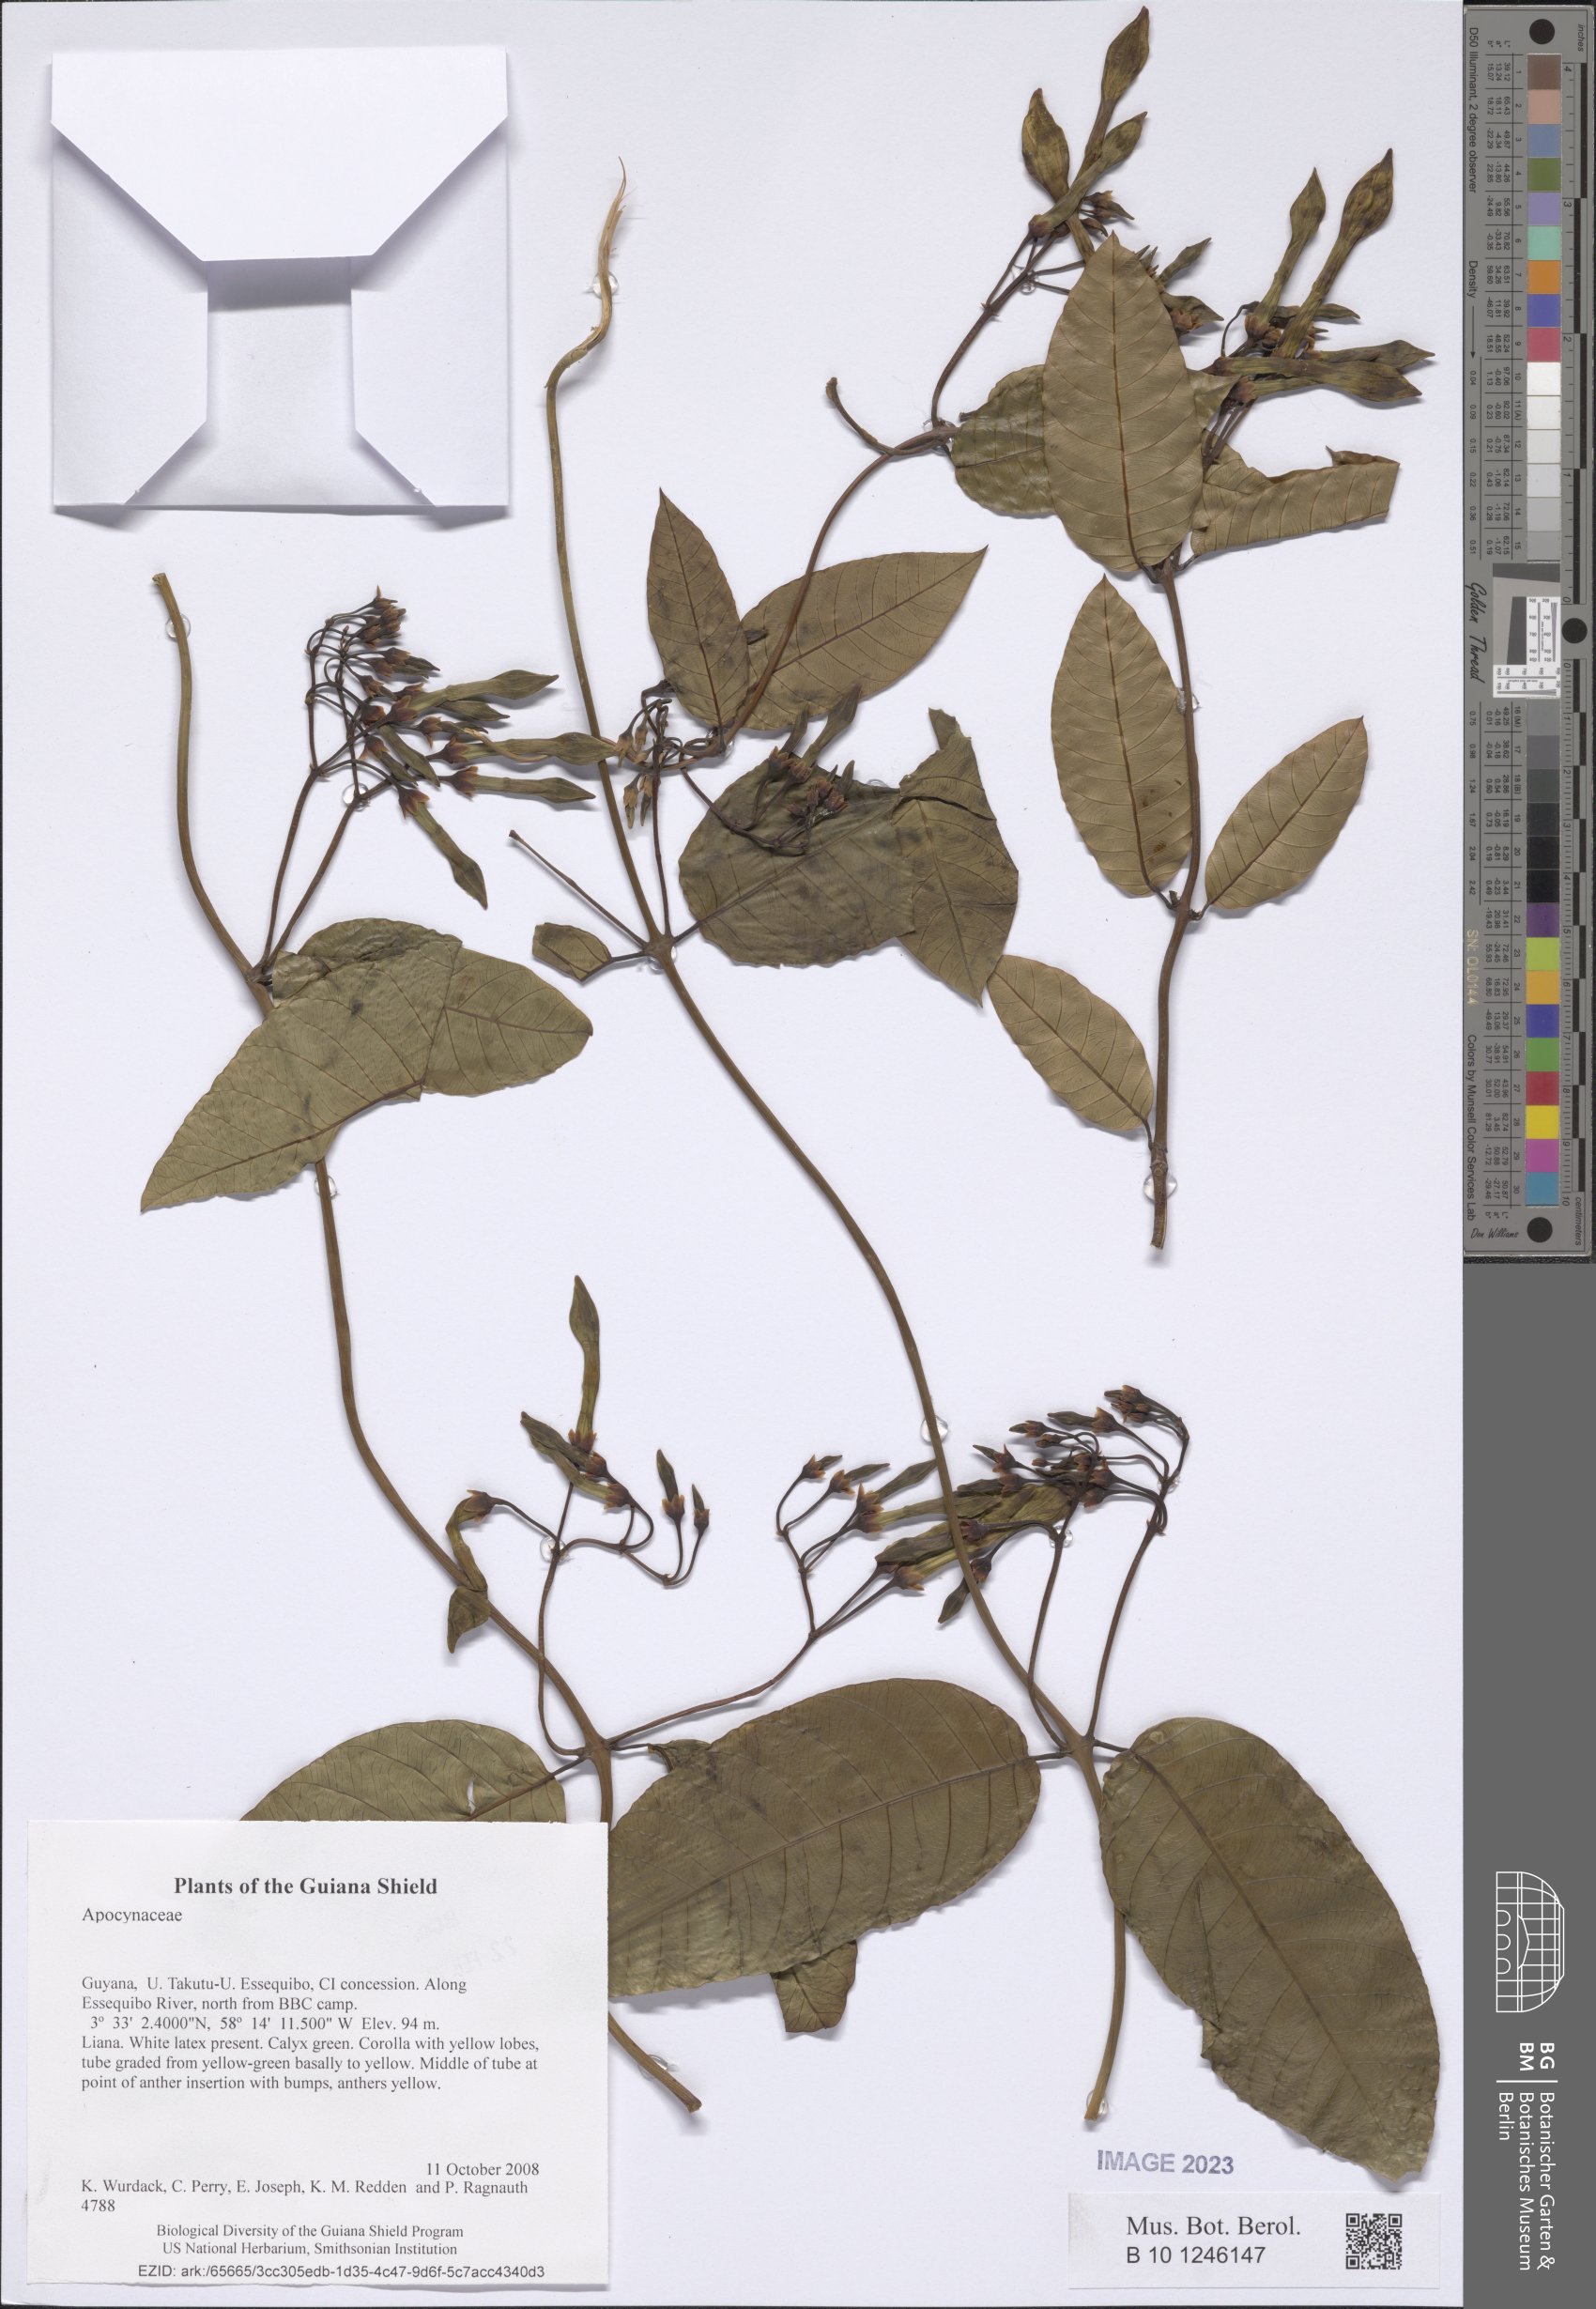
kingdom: Plantae
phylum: Tracheophyta
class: Magnoliopsida
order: Gentianales
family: Apocynaceae
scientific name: Apocynaceae
